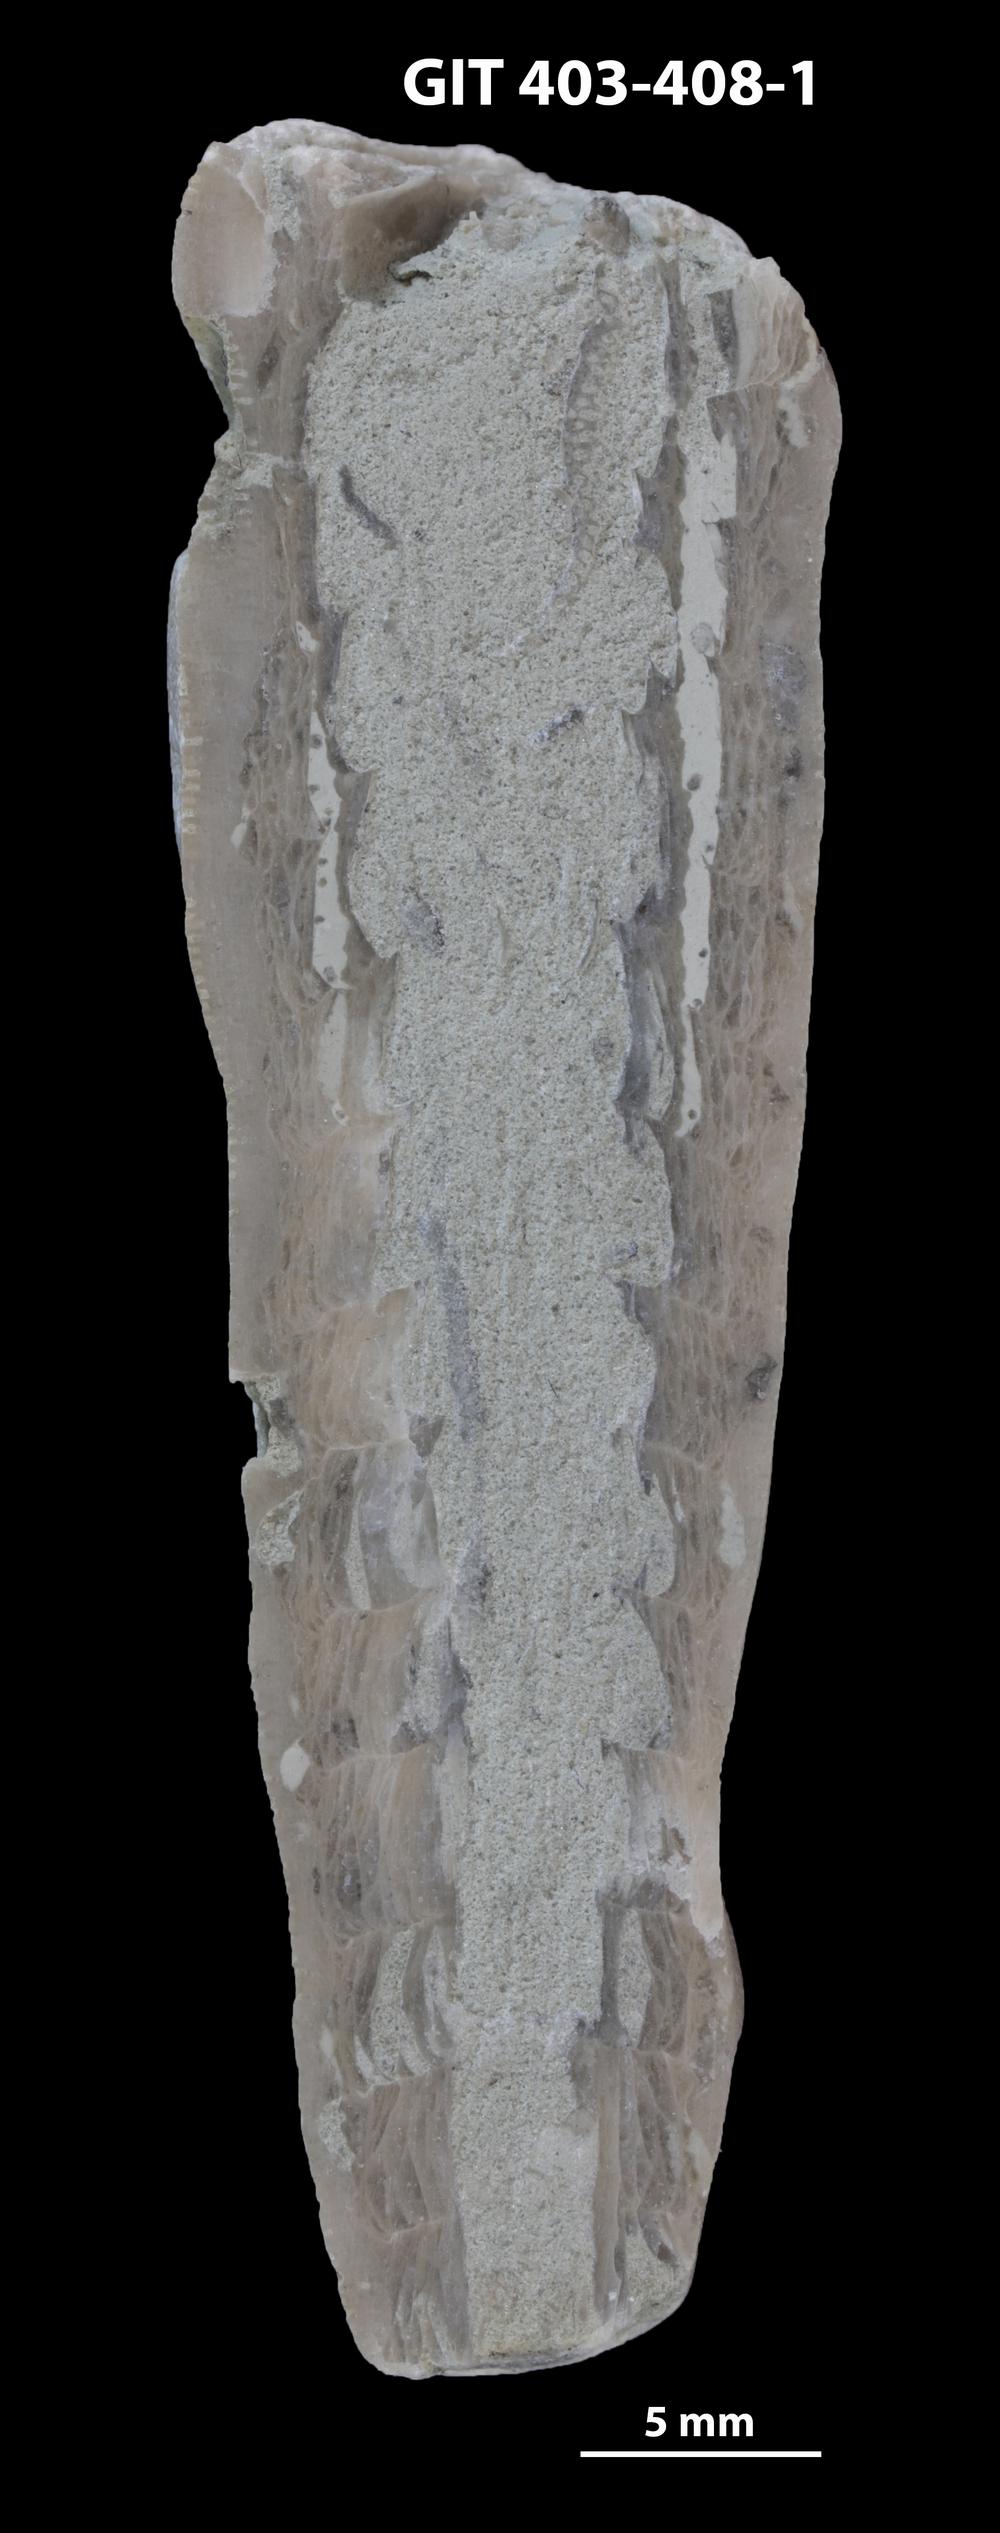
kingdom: Animalia
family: Cornulitidae
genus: Cornulites
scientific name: Cornulites
